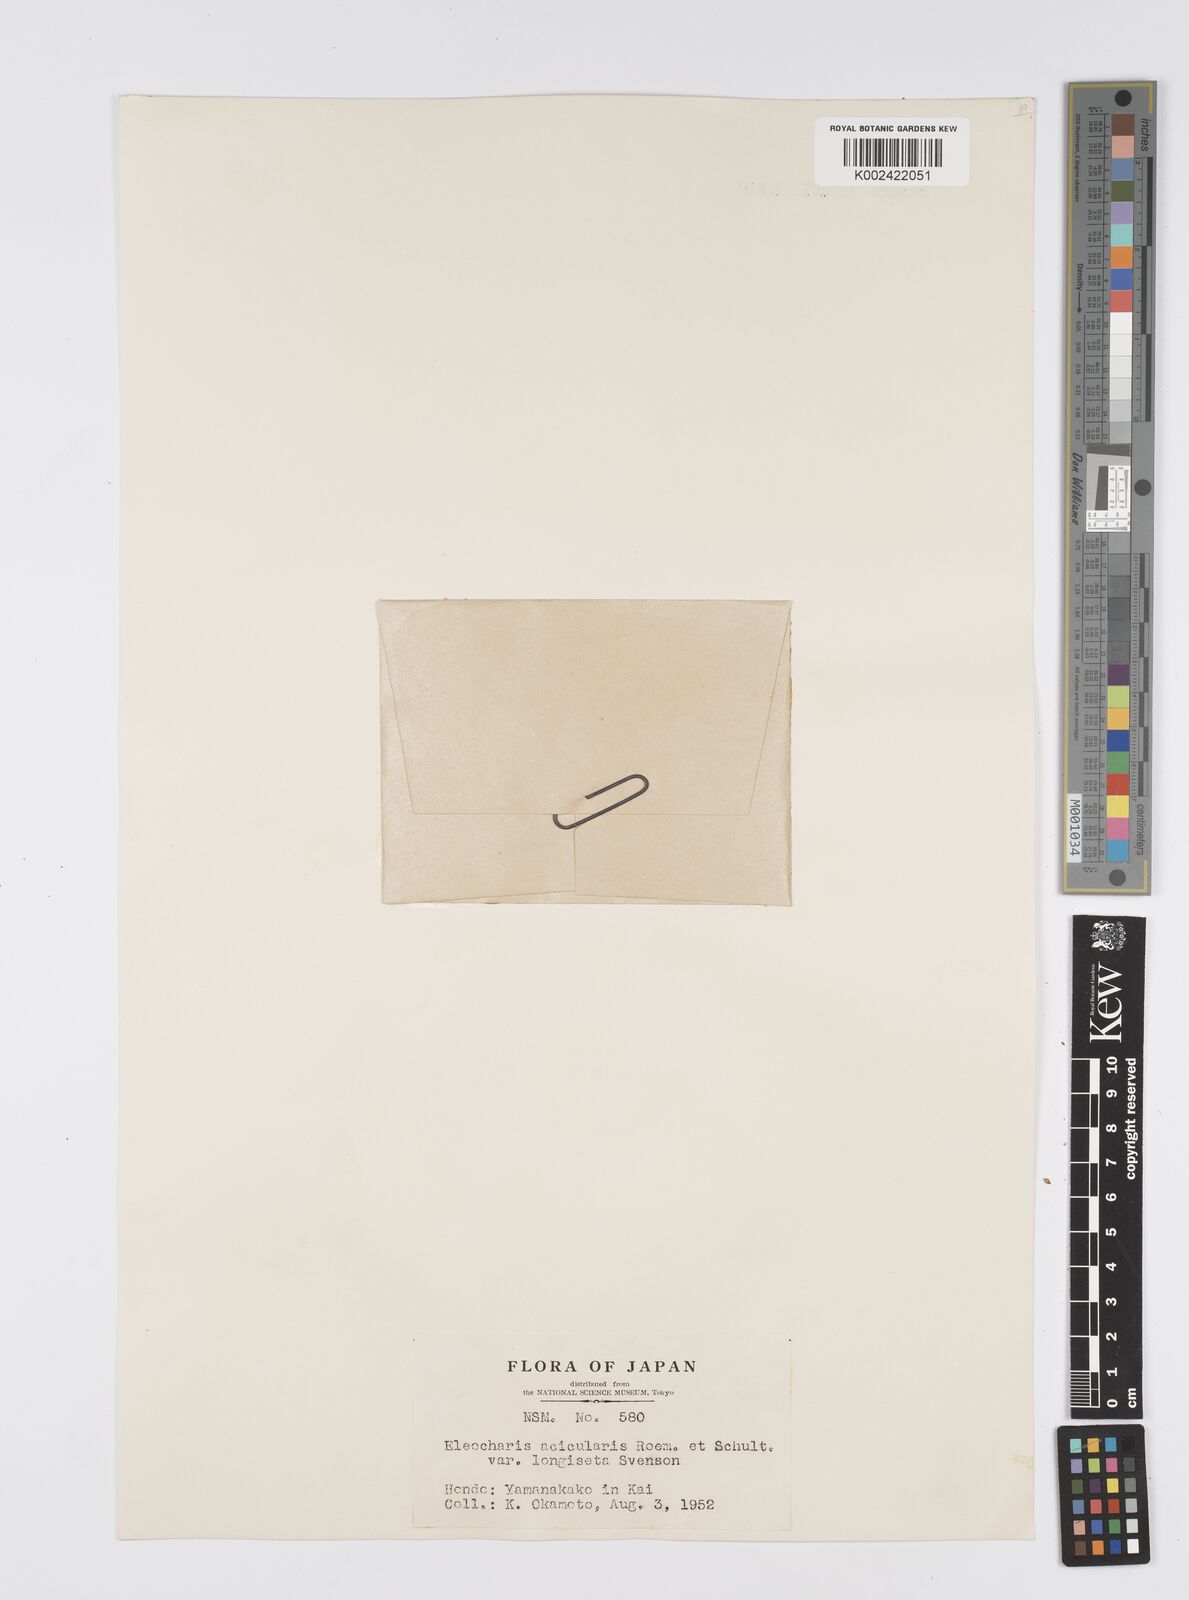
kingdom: Plantae
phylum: Tracheophyta
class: Liliopsida
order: Poales
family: Cyperaceae
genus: Eleocharis
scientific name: Eleocharis acicularis
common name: Needle spike-rush
